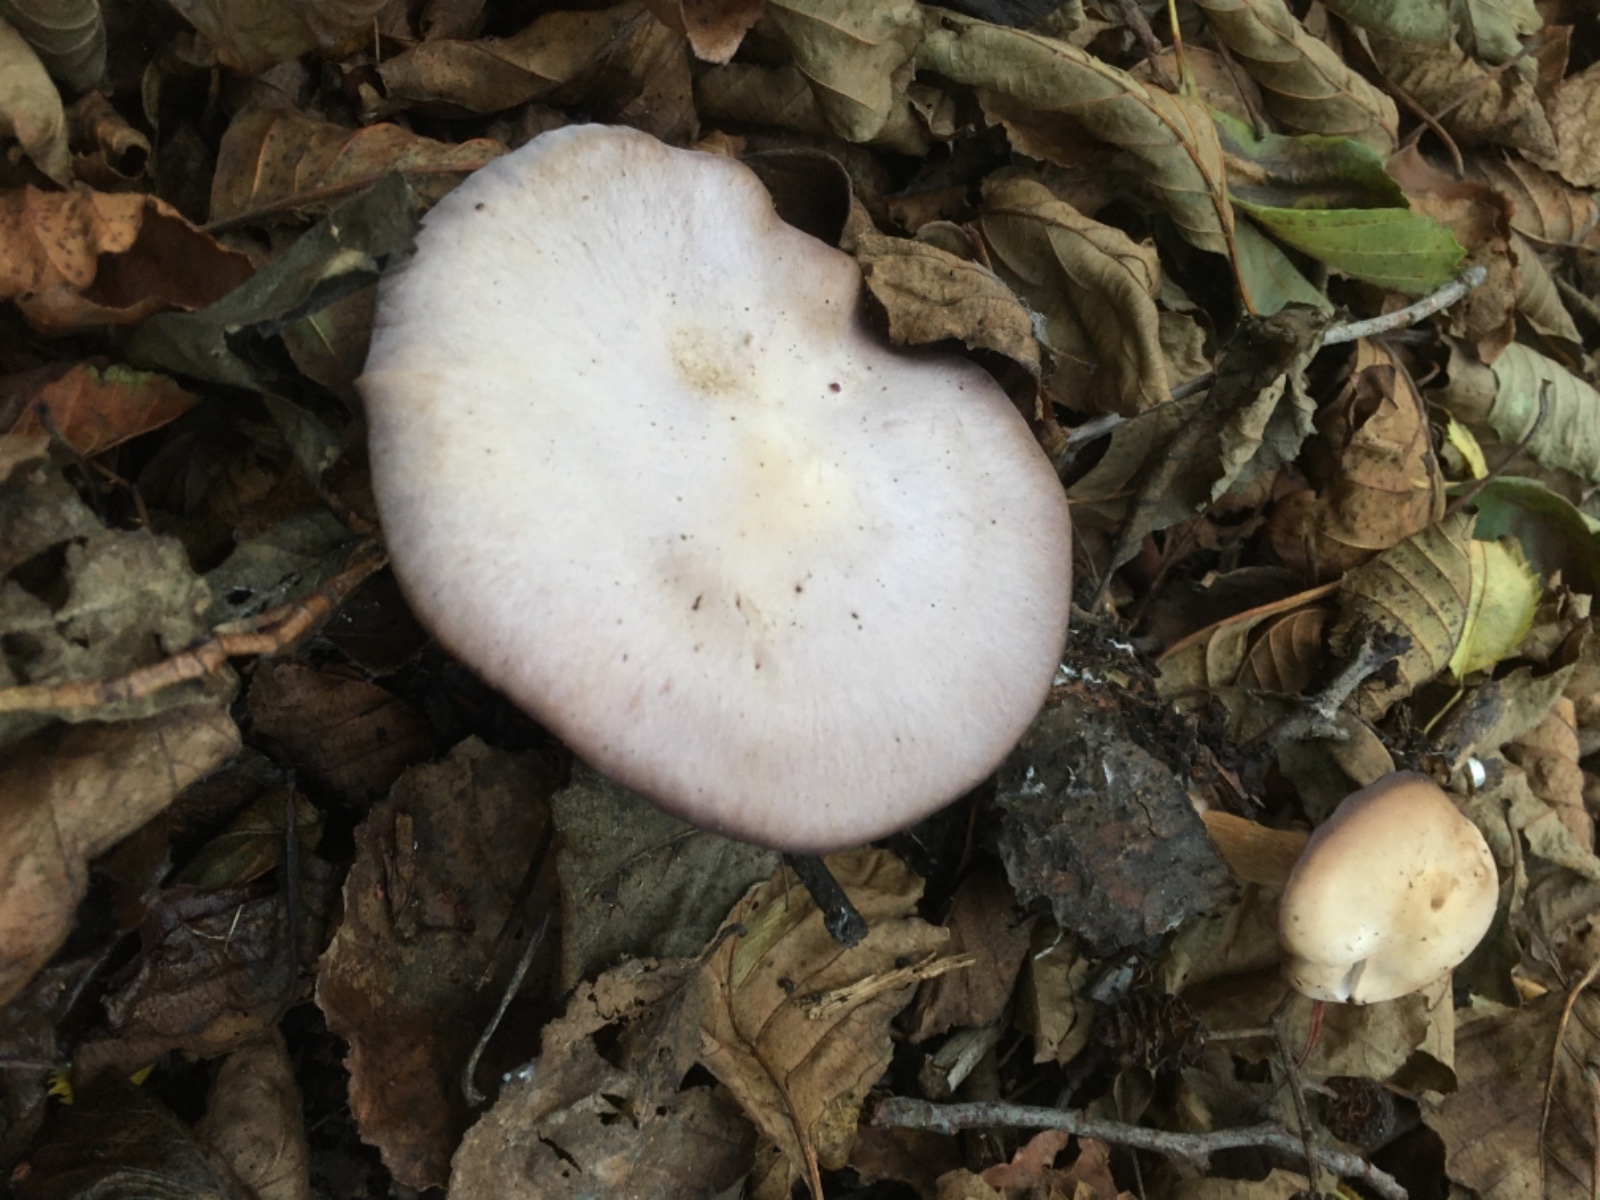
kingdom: Fungi
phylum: Basidiomycota
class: Agaricomycetes
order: Polyporales
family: Phanerochaetaceae
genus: Bjerkandera
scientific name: Bjerkandera adusta
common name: sveden sodporesvamp
